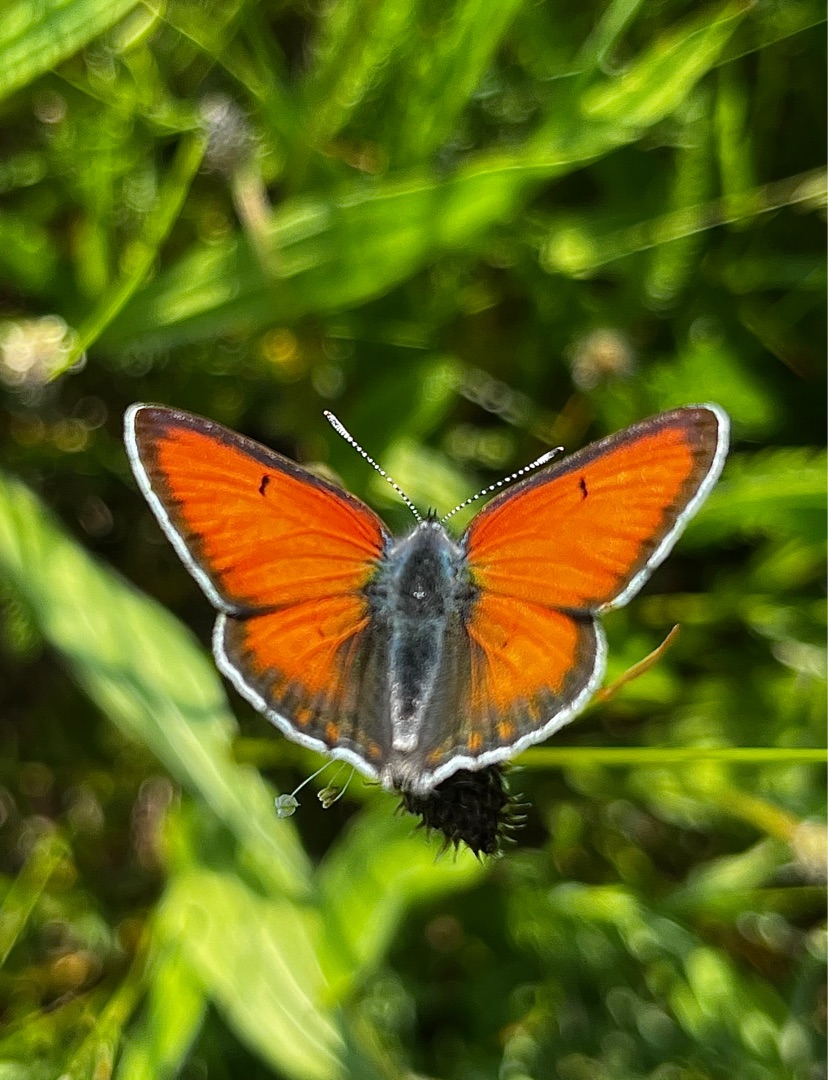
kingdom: Animalia
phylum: Arthropoda
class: Insecta
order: Lepidoptera
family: Lycaenidae
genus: Palaeochrysophanus
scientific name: Palaeochrysophanus hippothoe
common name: Violetrandet ildfugl
